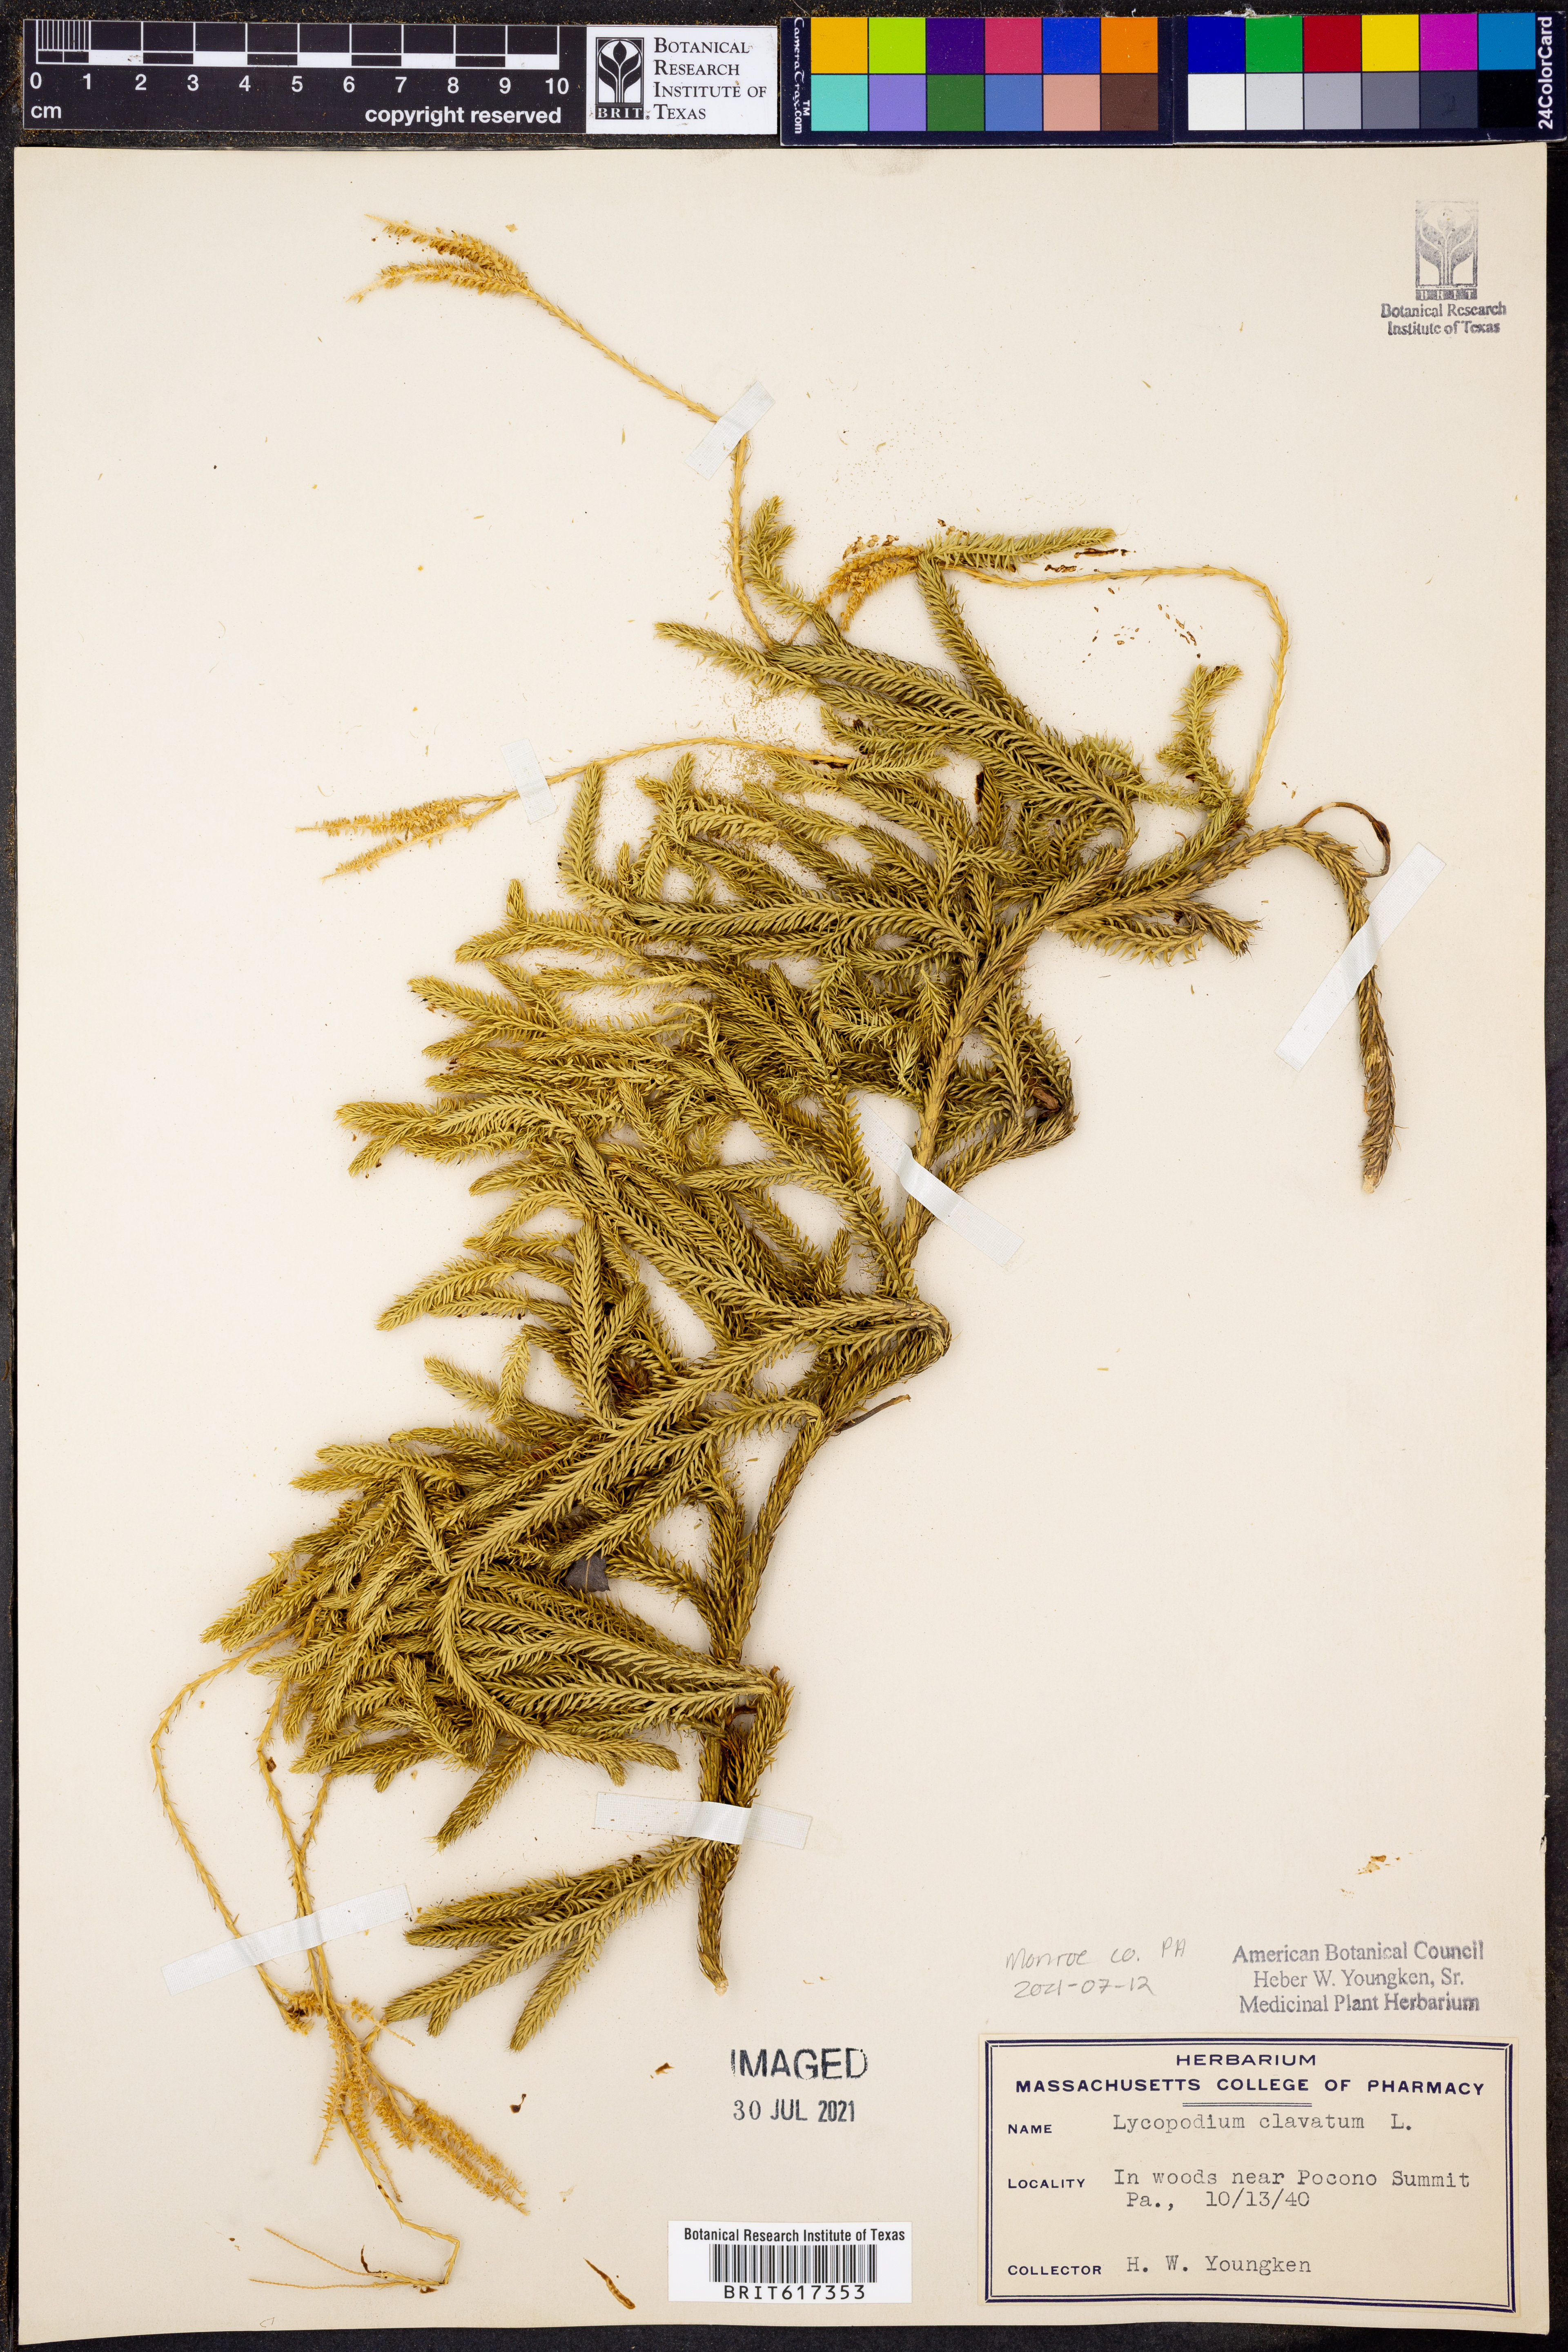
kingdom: Plantae
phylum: Tracheophyta
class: Lycopodiopsida
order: Lycopodiales
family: Lycopodiaceae
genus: Lycopodium
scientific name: Lycopodium clavatum
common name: Stag's-horn clubmoss
